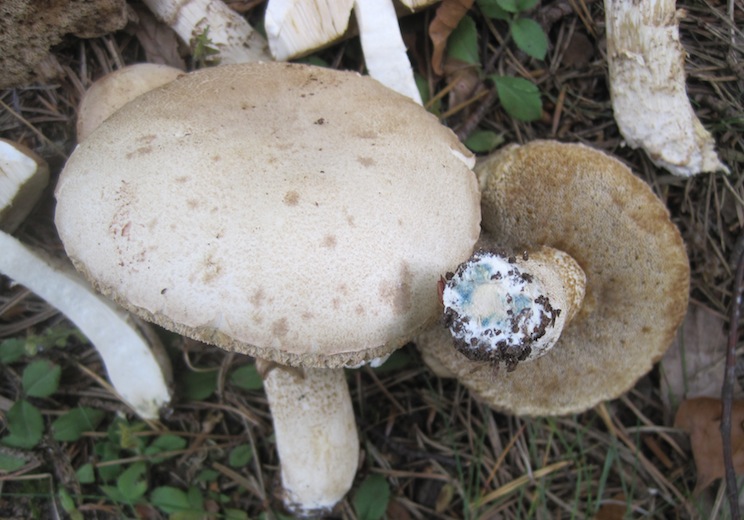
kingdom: Fungi
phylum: Basidiomycota
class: Agaricomycetes
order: Boletales
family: Boletaceae
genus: Leccinum
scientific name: Leccinum scabrum
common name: hvid skælrørhat
